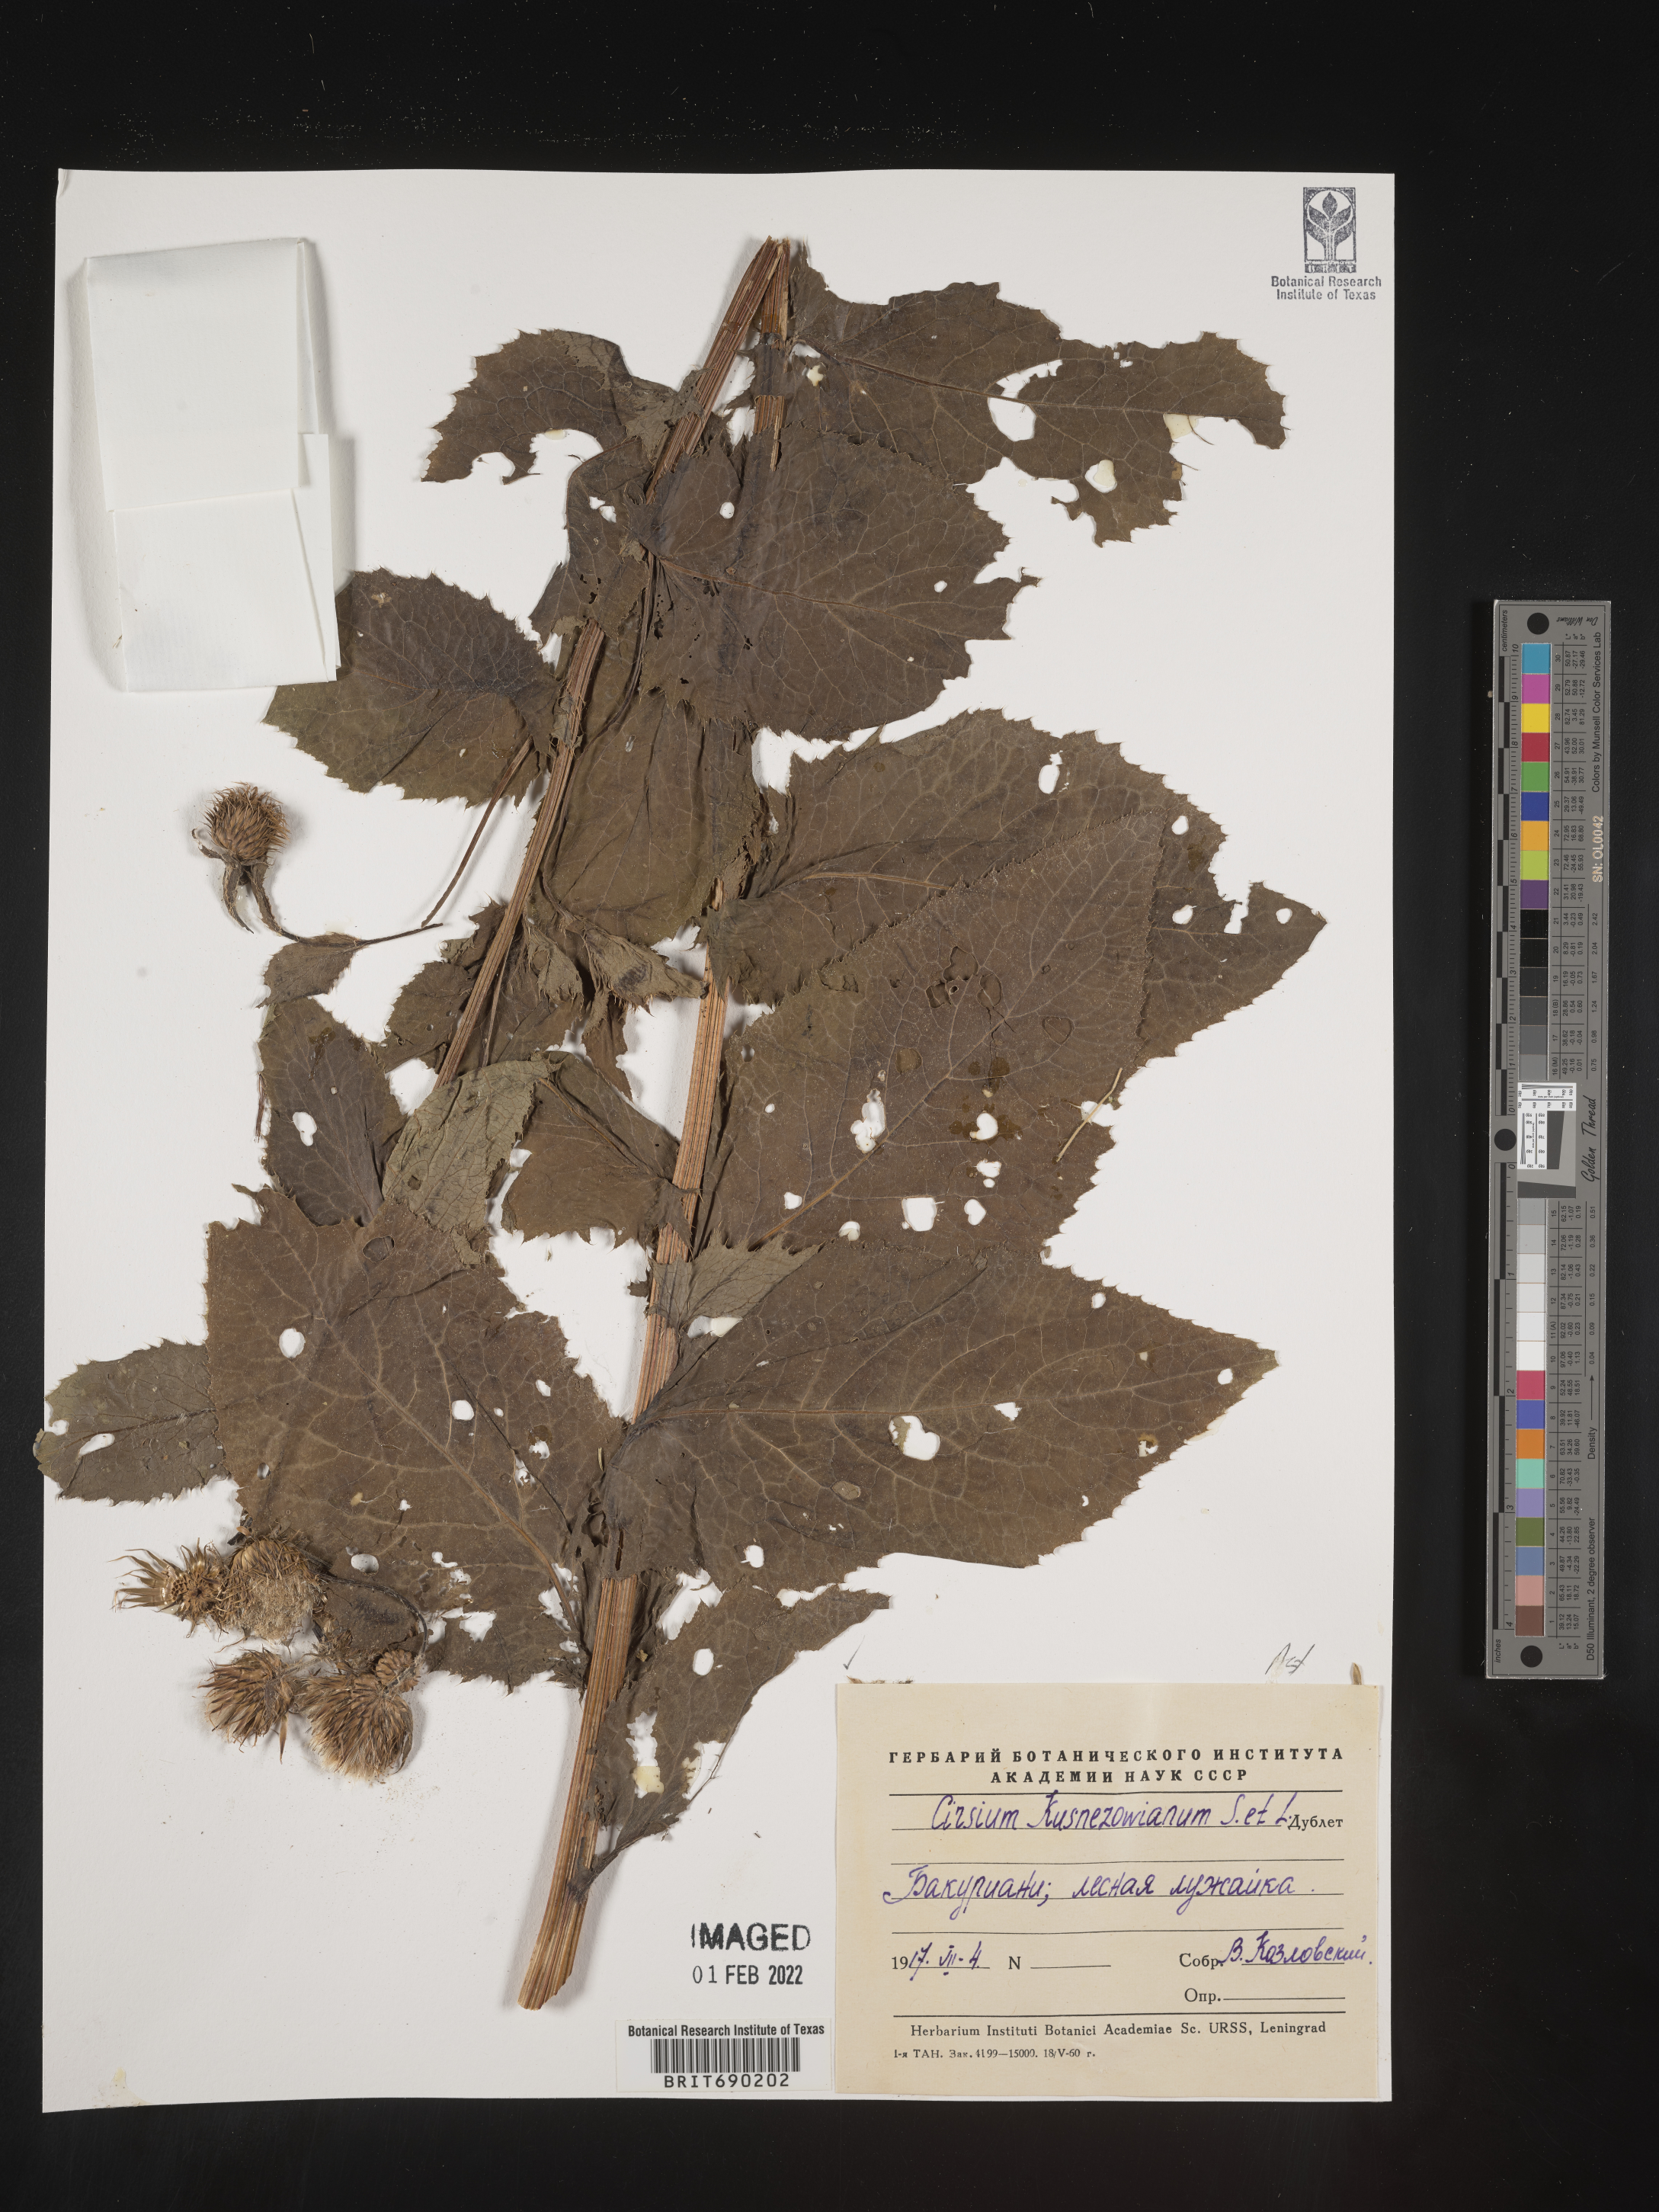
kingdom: Plantae
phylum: Tracheophyta
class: Magnoliopsida
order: Asterales
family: Asteraceae
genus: Cirsium
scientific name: Cirsium
